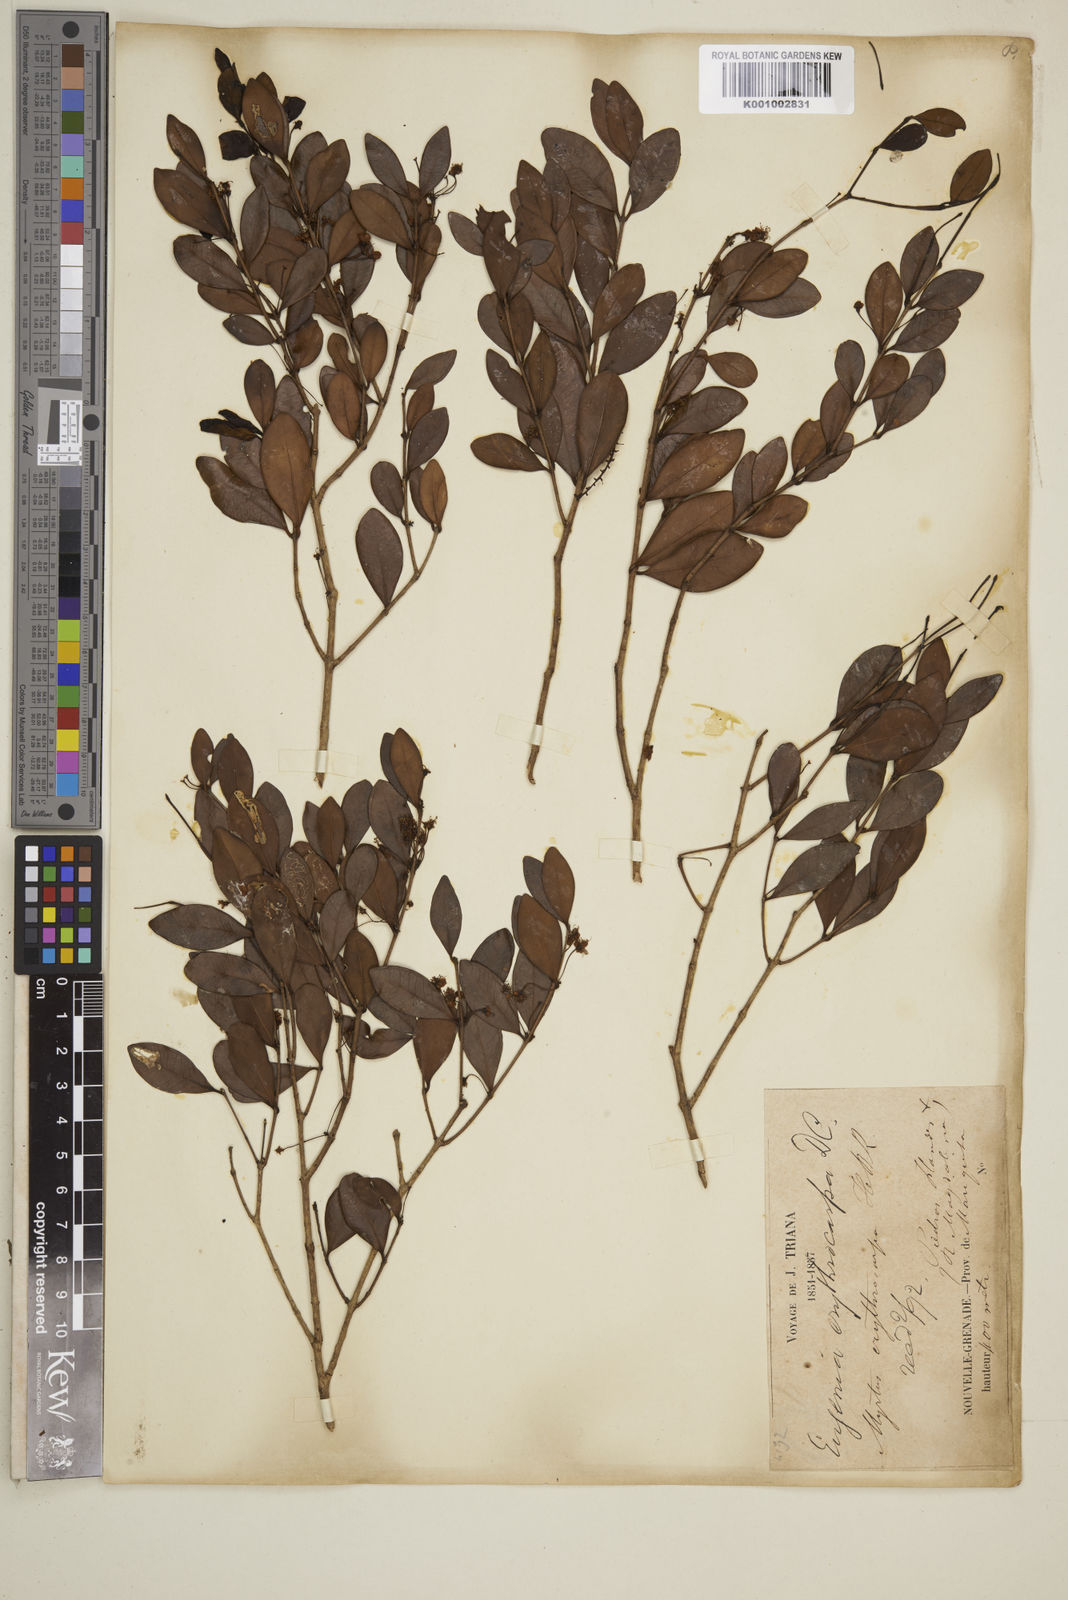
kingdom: Plantae
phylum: Tracheophyta
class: Magnoliopsida
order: Myrtales
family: Myrtaceae
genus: Eugenia
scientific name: Eugenia erythrocarpa
